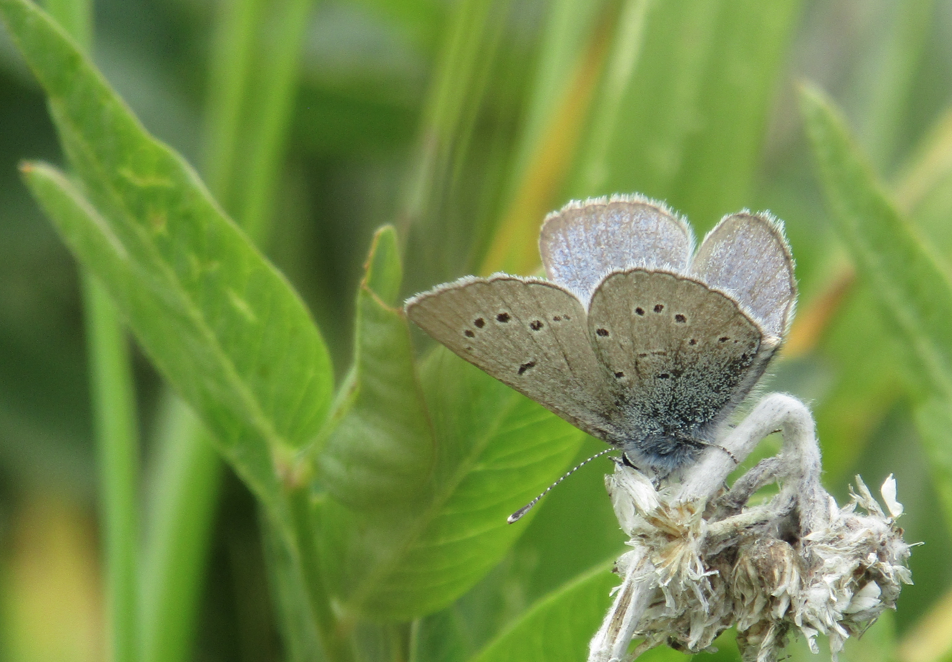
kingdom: Animalia
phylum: Arthropoda
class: Insecta
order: Lepidoptera
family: Lycaenidae
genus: Glaucopsyche
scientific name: Glaucopsyche lygdamus
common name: Silvery Blue
